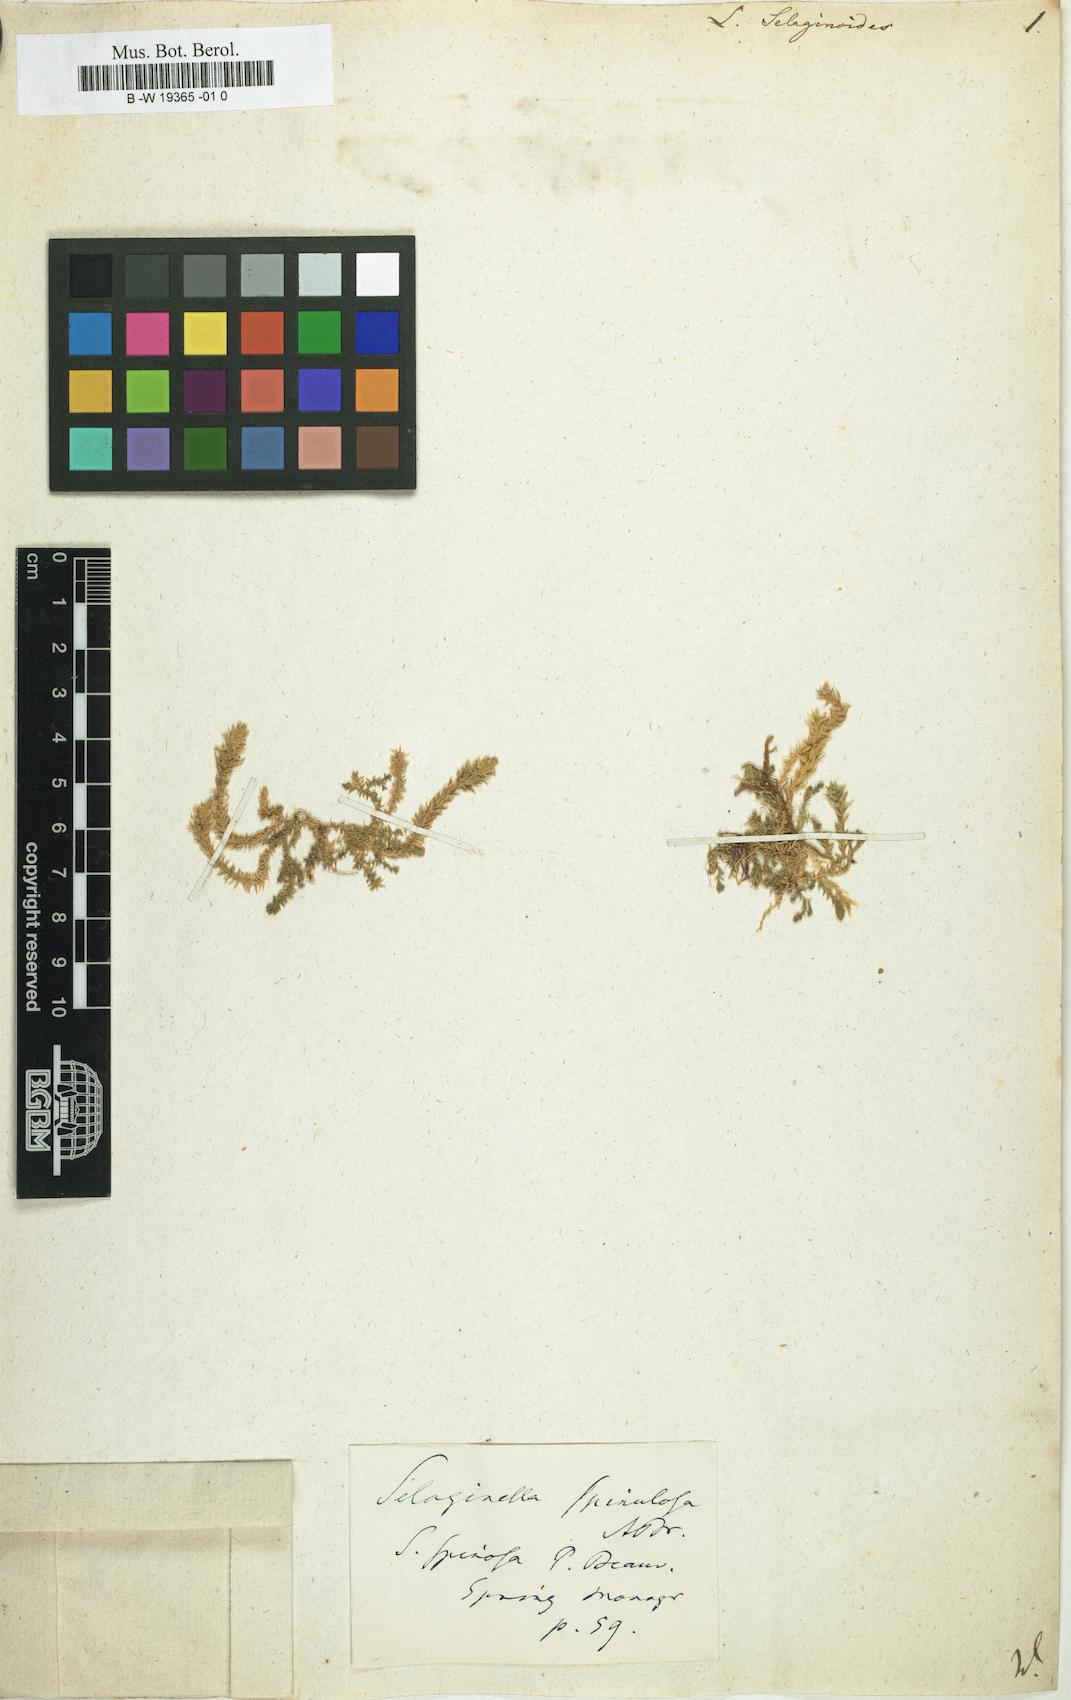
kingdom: Plantae
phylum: Tracheophyta
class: Lycopodiopsida
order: Selaginellales
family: Selaginellaceae
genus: Selaginella
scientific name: Selaginella selaginoides
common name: Prickly mountain-moss
